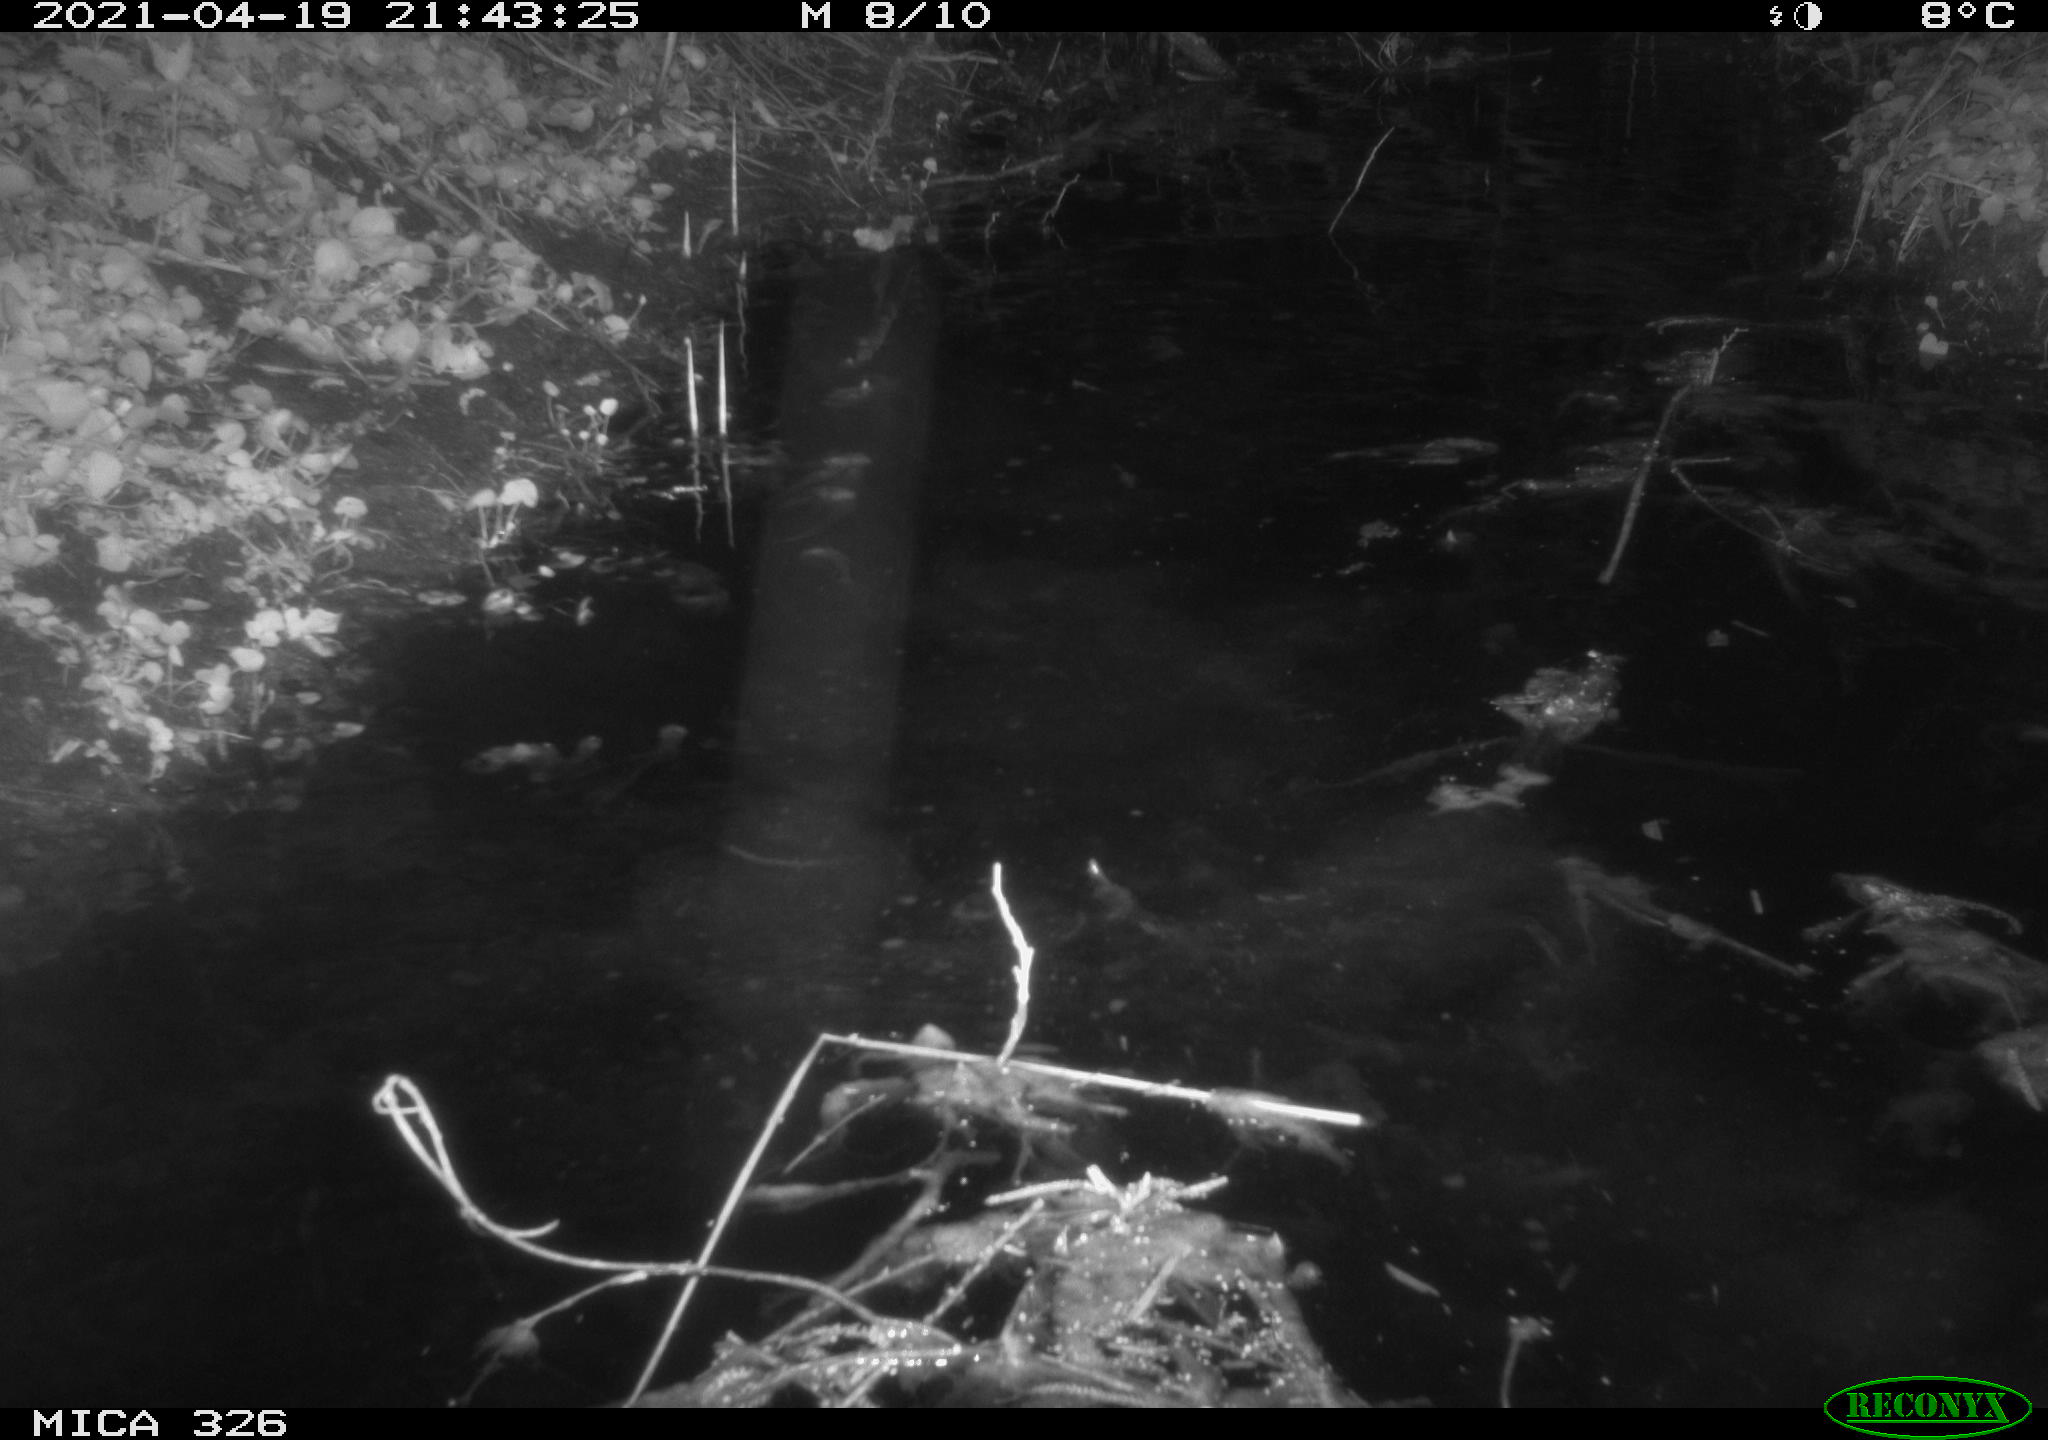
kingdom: Animalia
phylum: Chordata
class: Mammalia
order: Rodentia
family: Myocastoridae
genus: Myocastor
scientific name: Myocastor coypus
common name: Coypu
